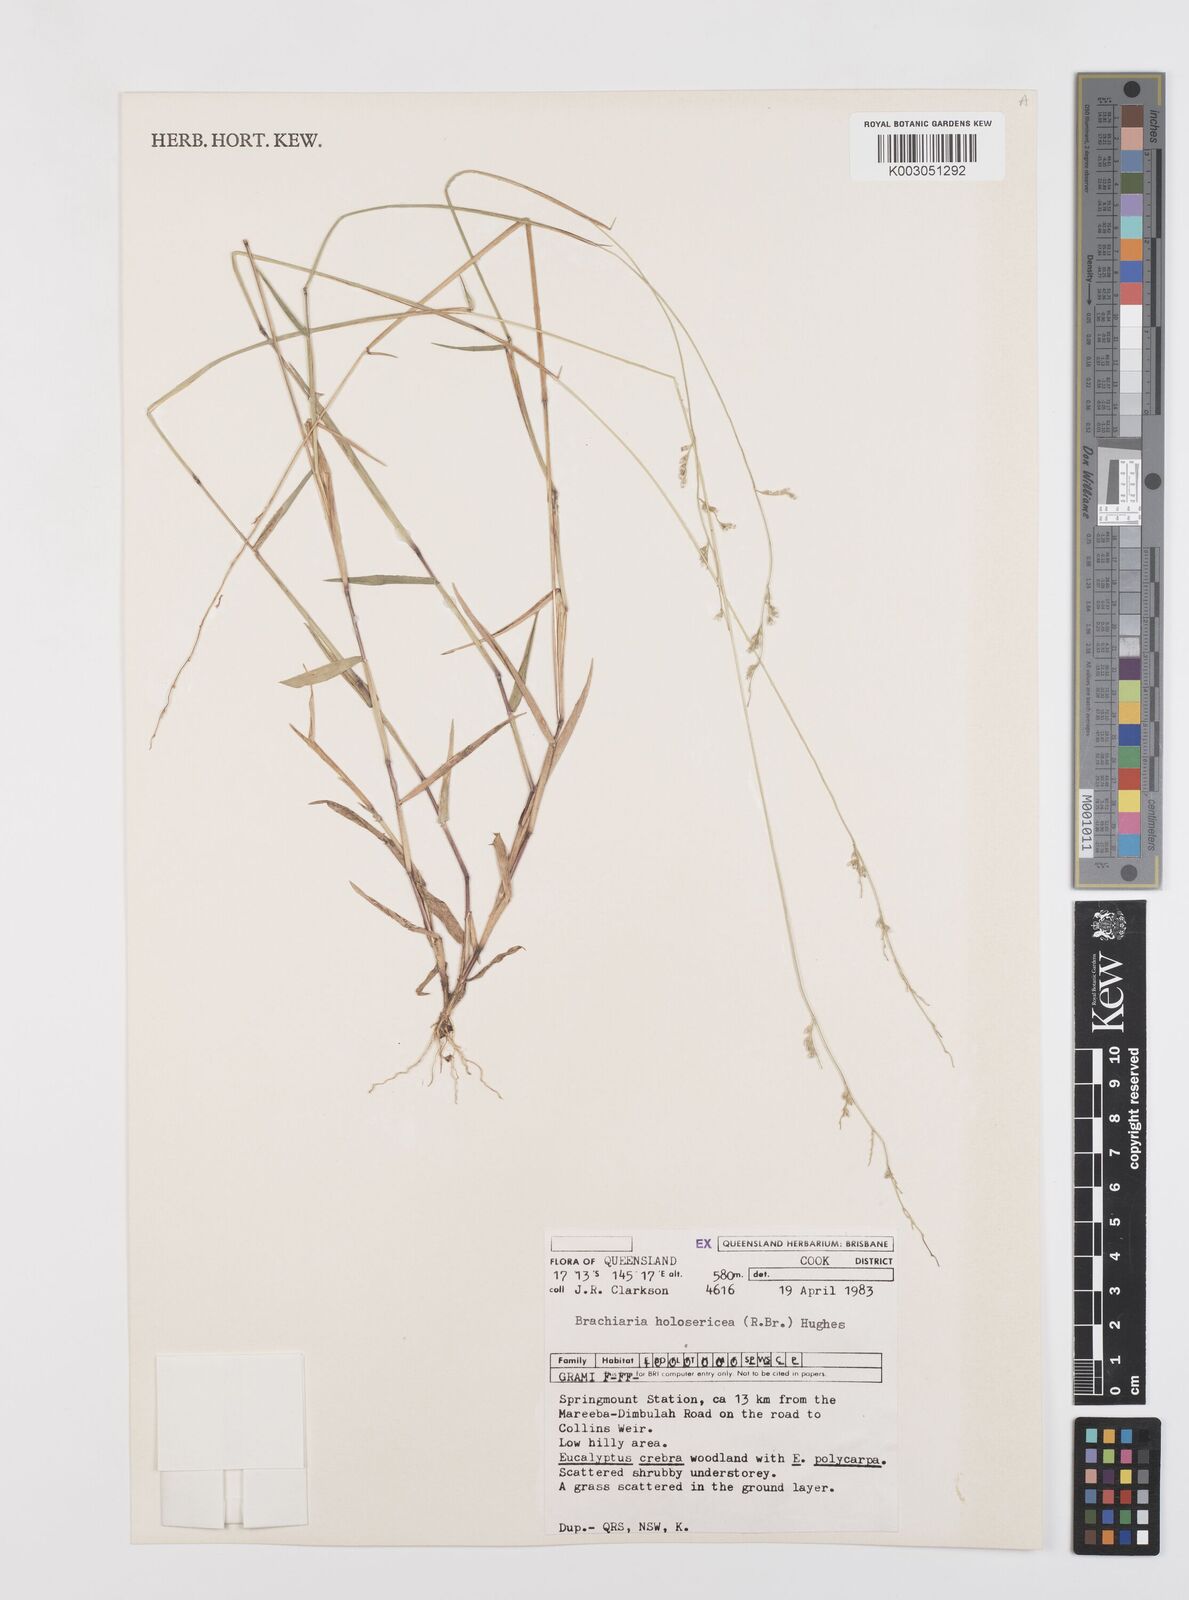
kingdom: Plantae
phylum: Tracheophyta
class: Liliopsida
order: Poales
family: Poaceae
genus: Urochloa
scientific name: Urochloa holosericea
